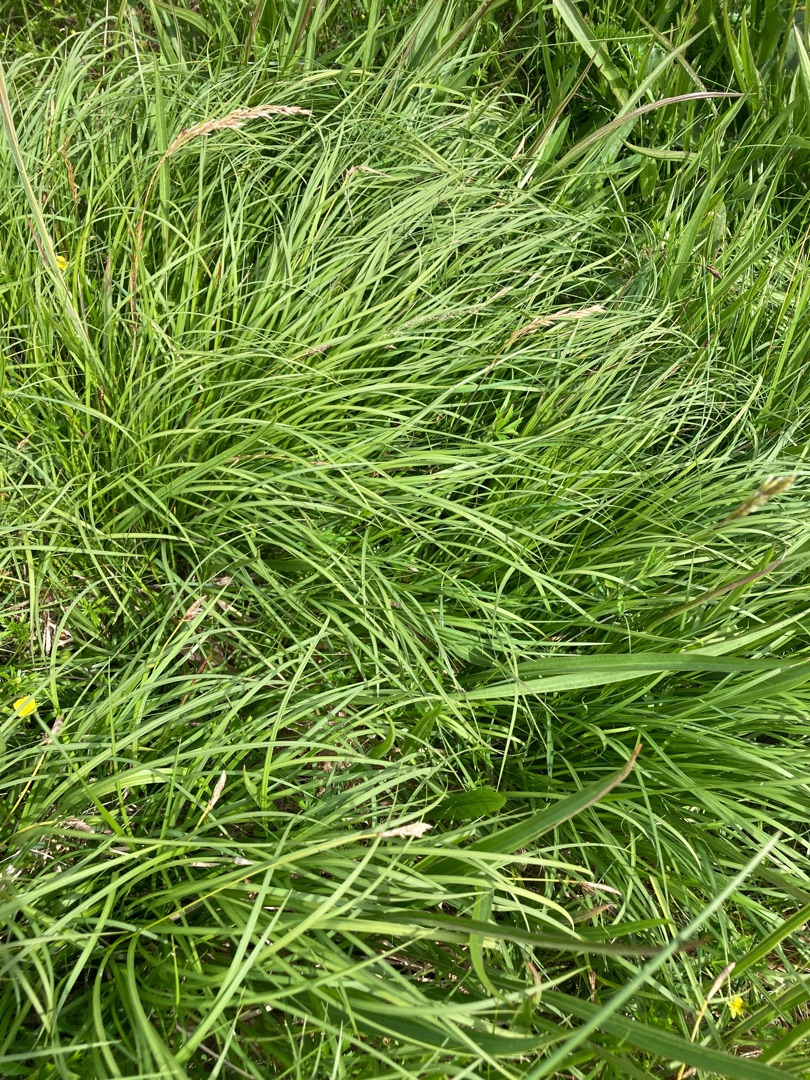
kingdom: Plantae
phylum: Tracheophyta
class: Liliopsida
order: Poales
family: Cyperaceae
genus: Carex
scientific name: Carex montana
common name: Bakke-star
